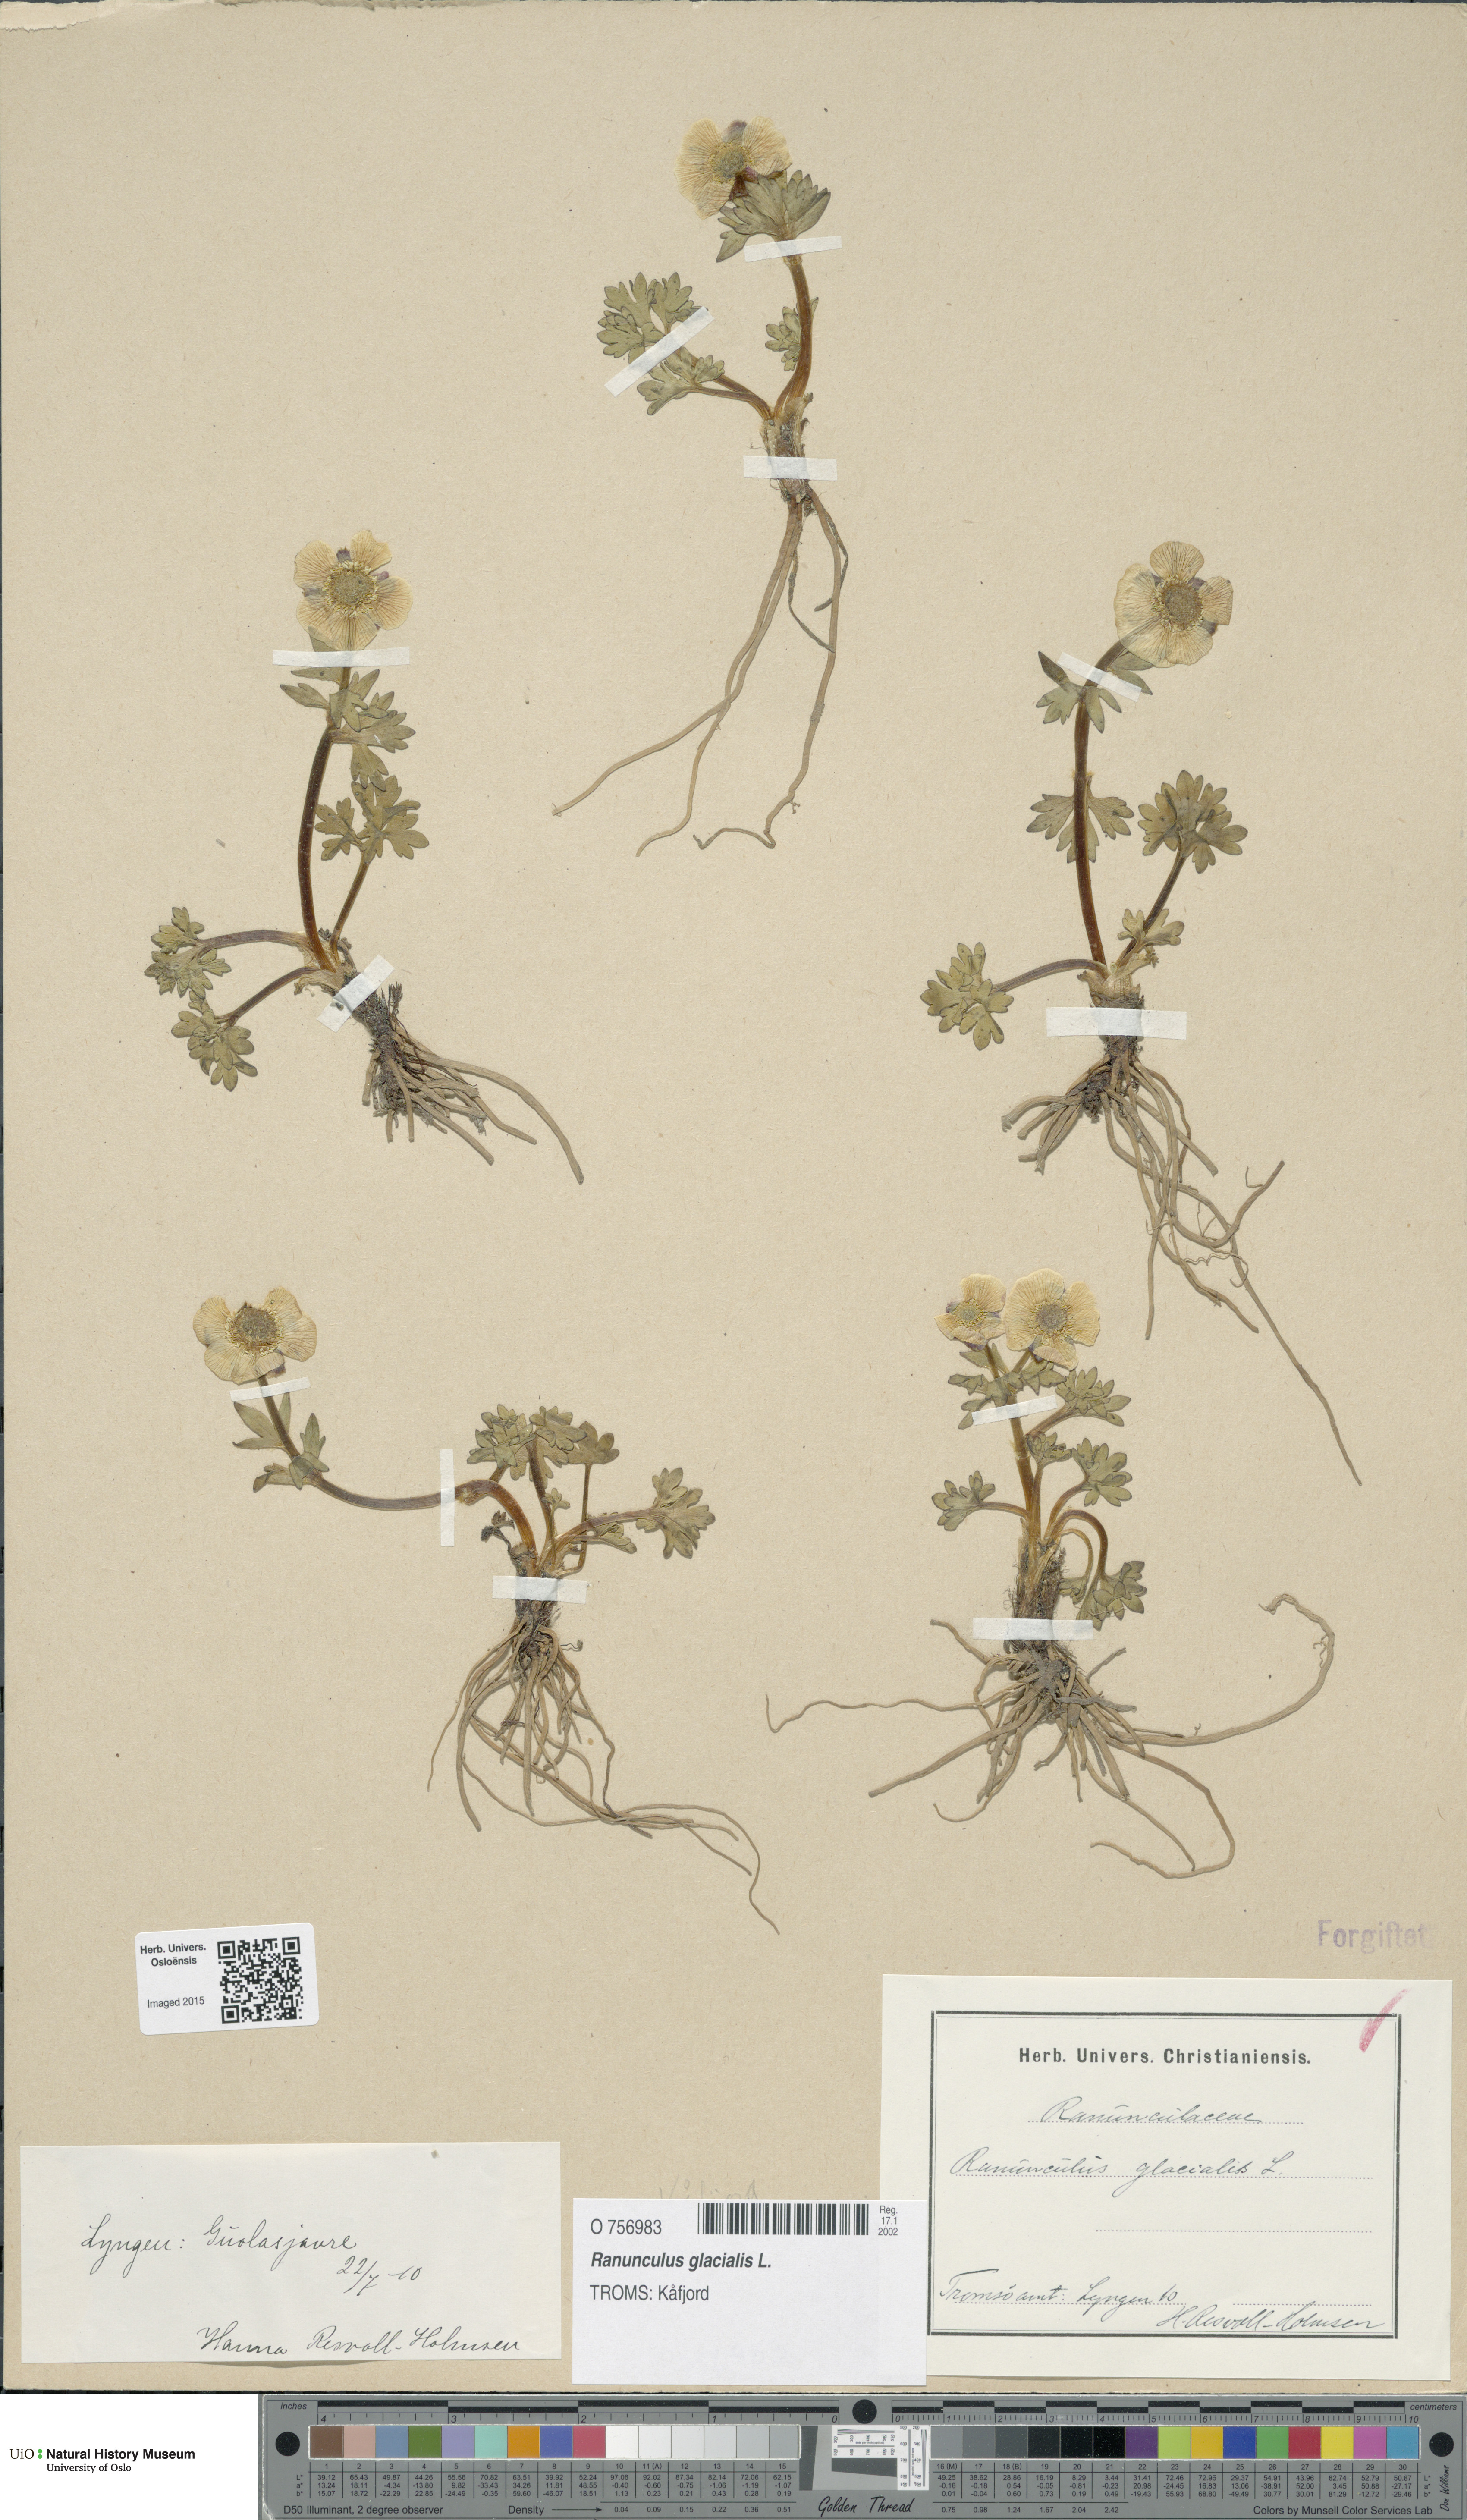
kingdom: Plantae
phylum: Tracheophyta
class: Magnoliopsida
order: Ranunculales
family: Ranunculaceae
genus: Ranunculus
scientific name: Ranunculus glacialis
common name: Glacier buttercup
